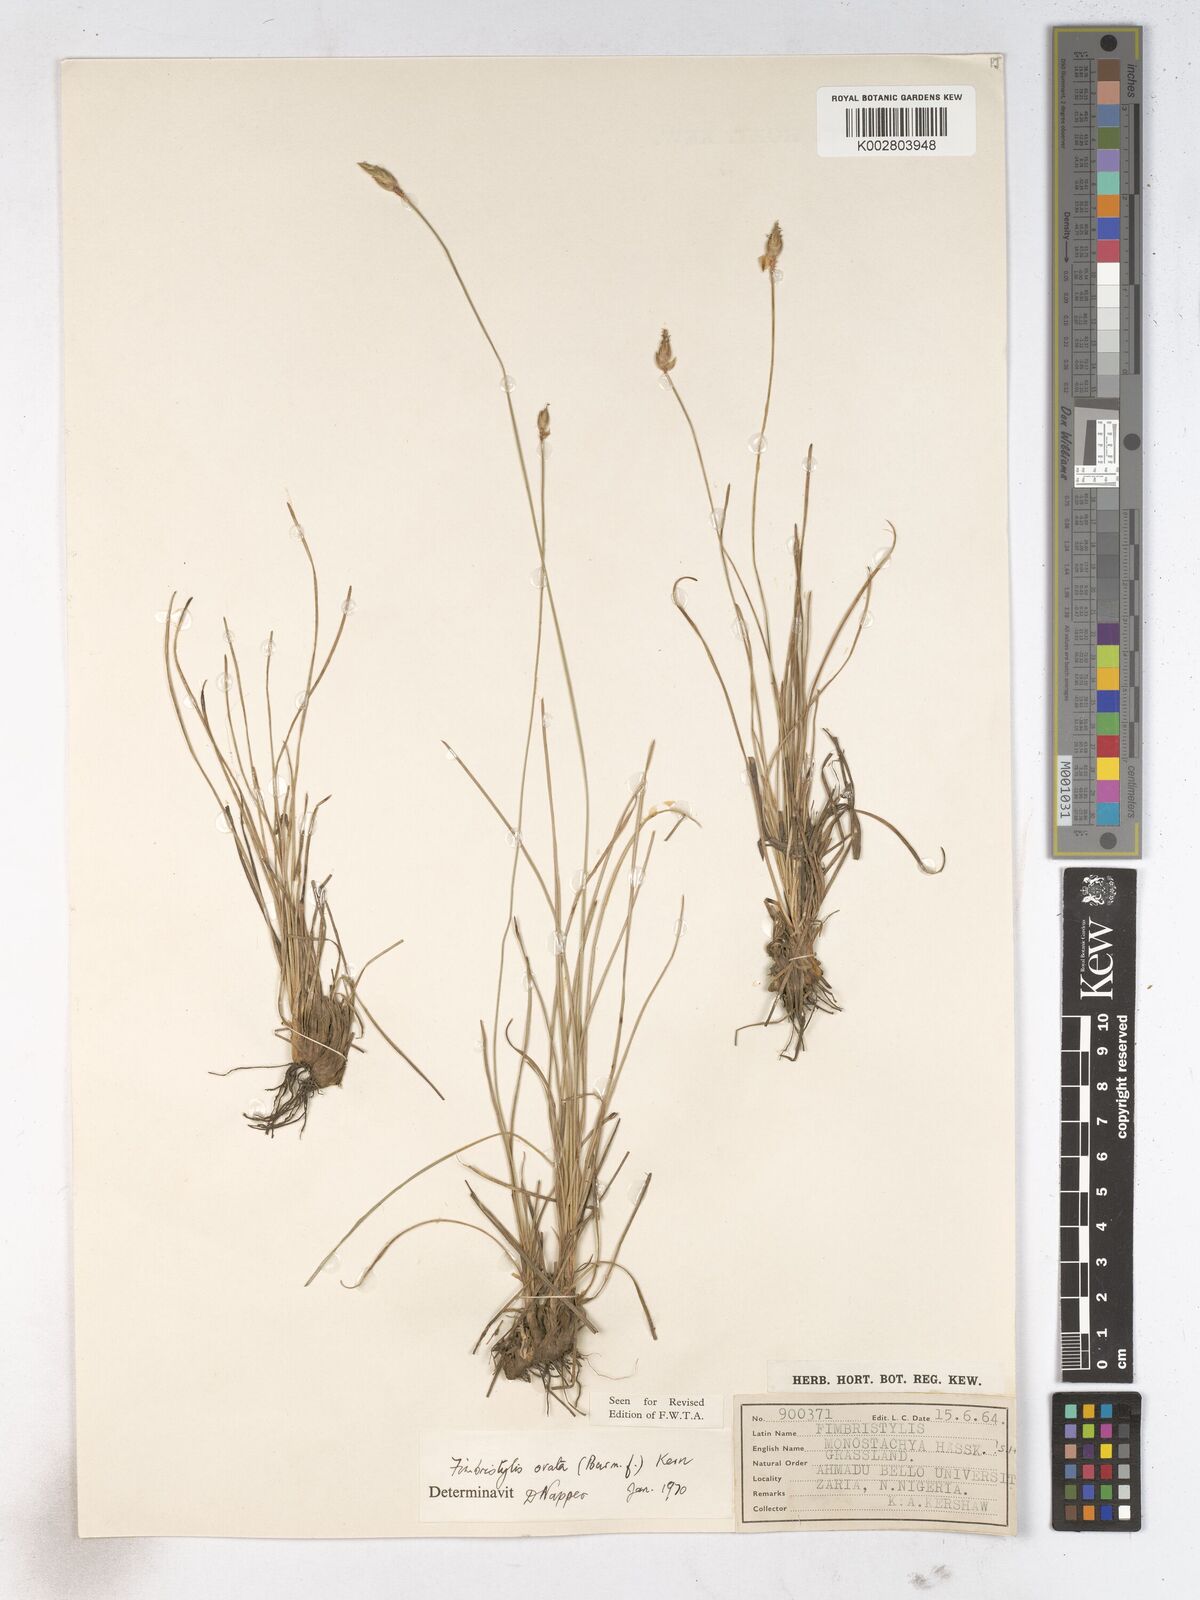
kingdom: Plantae
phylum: Tracheophyta
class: Liliopsida
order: Poales
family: Cyperaceae
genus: Abildgaardia
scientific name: Abildgaardia ovata
